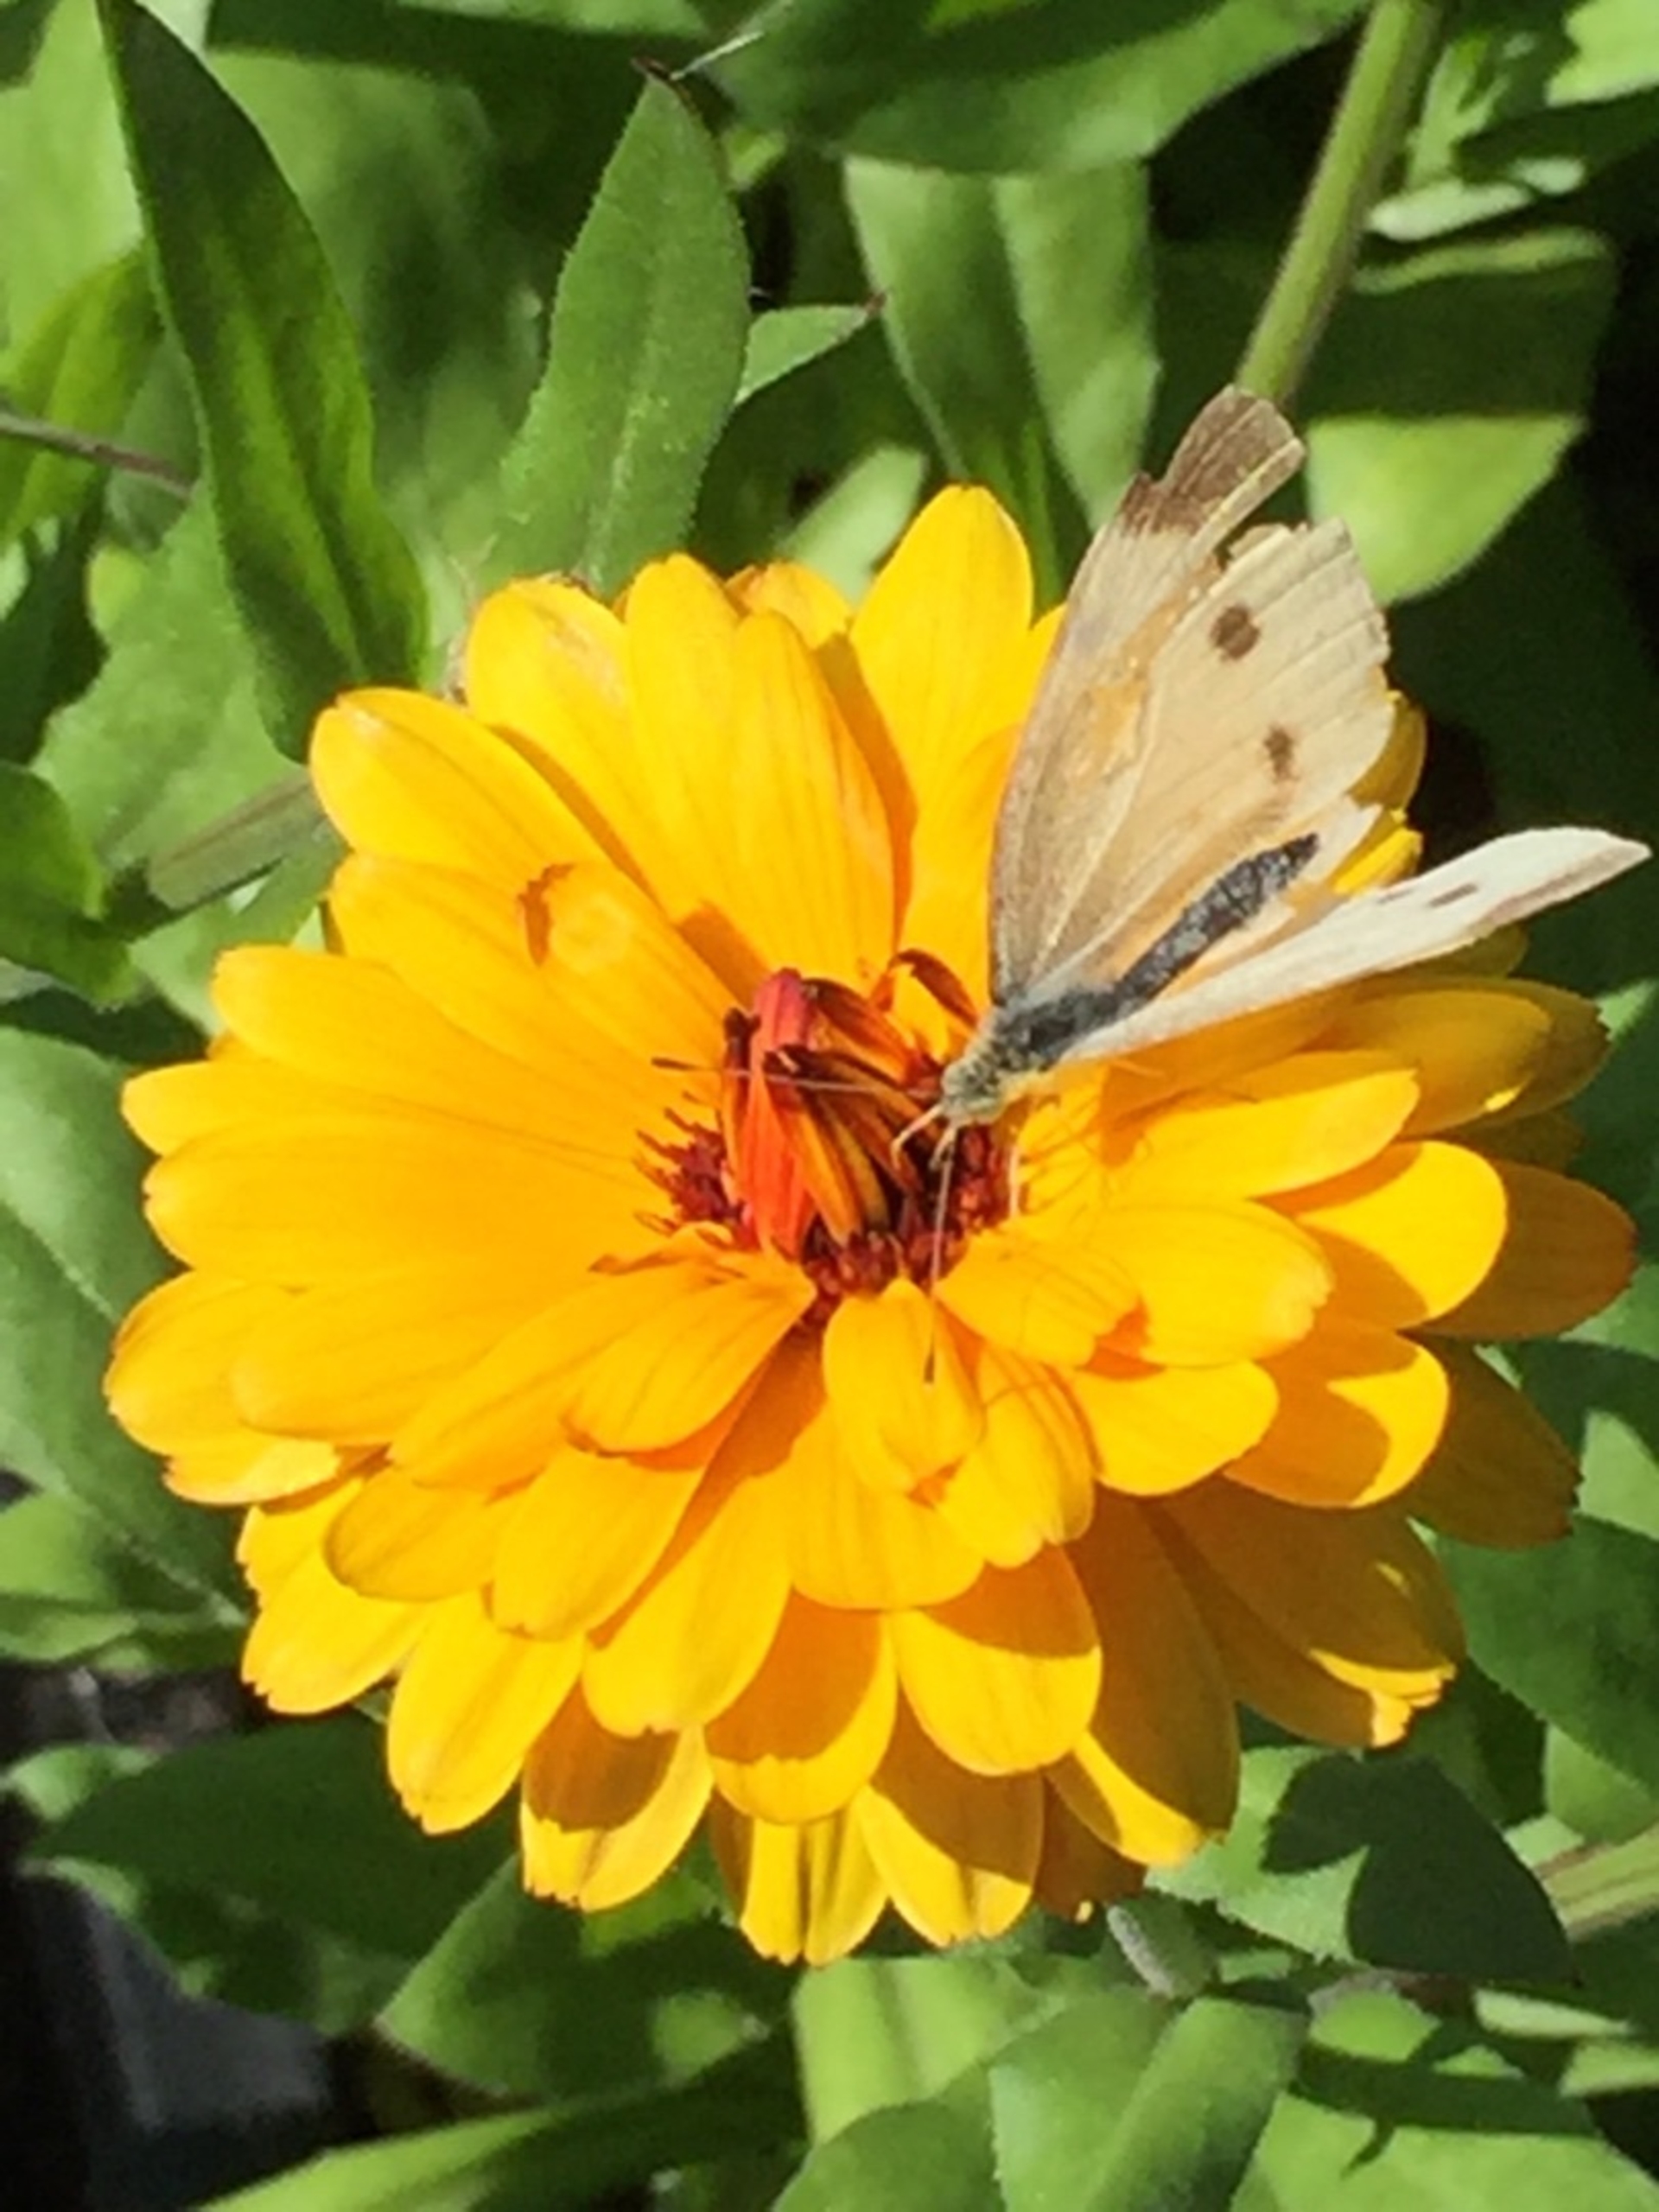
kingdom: Animalia
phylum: Arthropoda
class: Insecta
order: Lepidoptera
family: Pieridae
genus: Pieris
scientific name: Pieris rapae
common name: Lille kålsommerfugl
